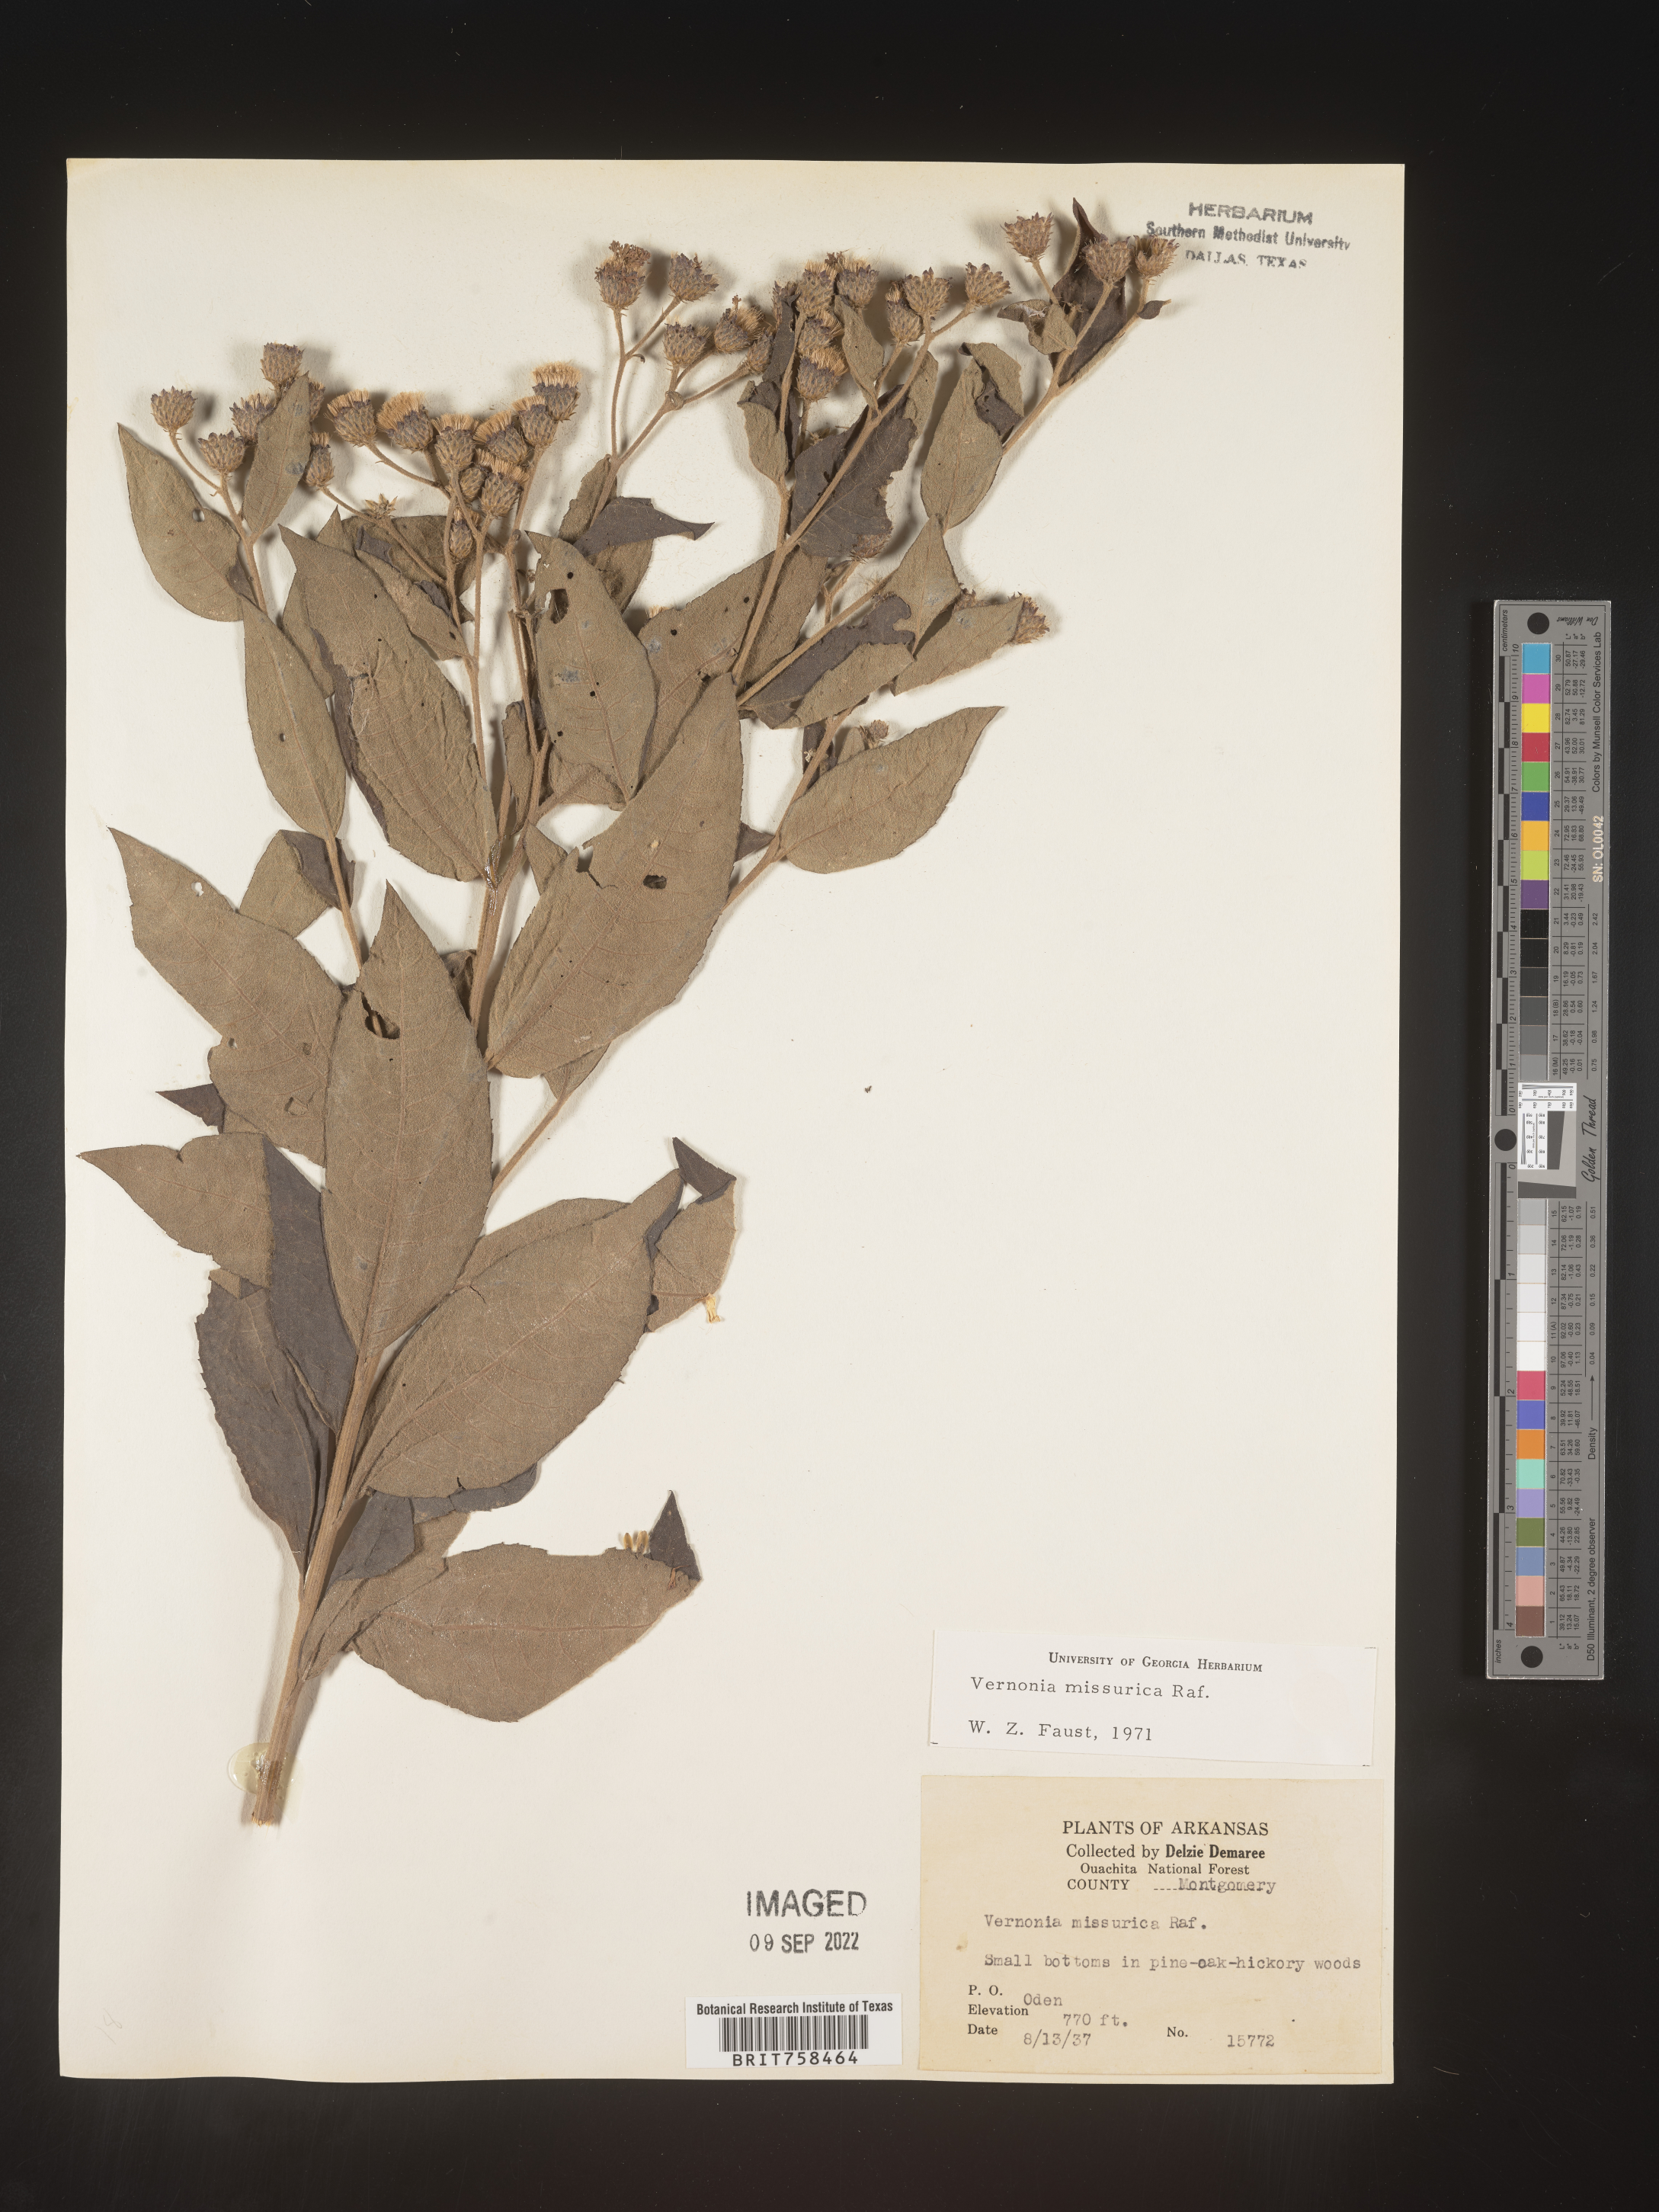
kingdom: Plantae
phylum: Tracheophyta
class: Magnoliopsida
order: Asterales
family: Asteraceae
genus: Vernonia
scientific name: Vernonia missurica
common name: Missouri ironweed
